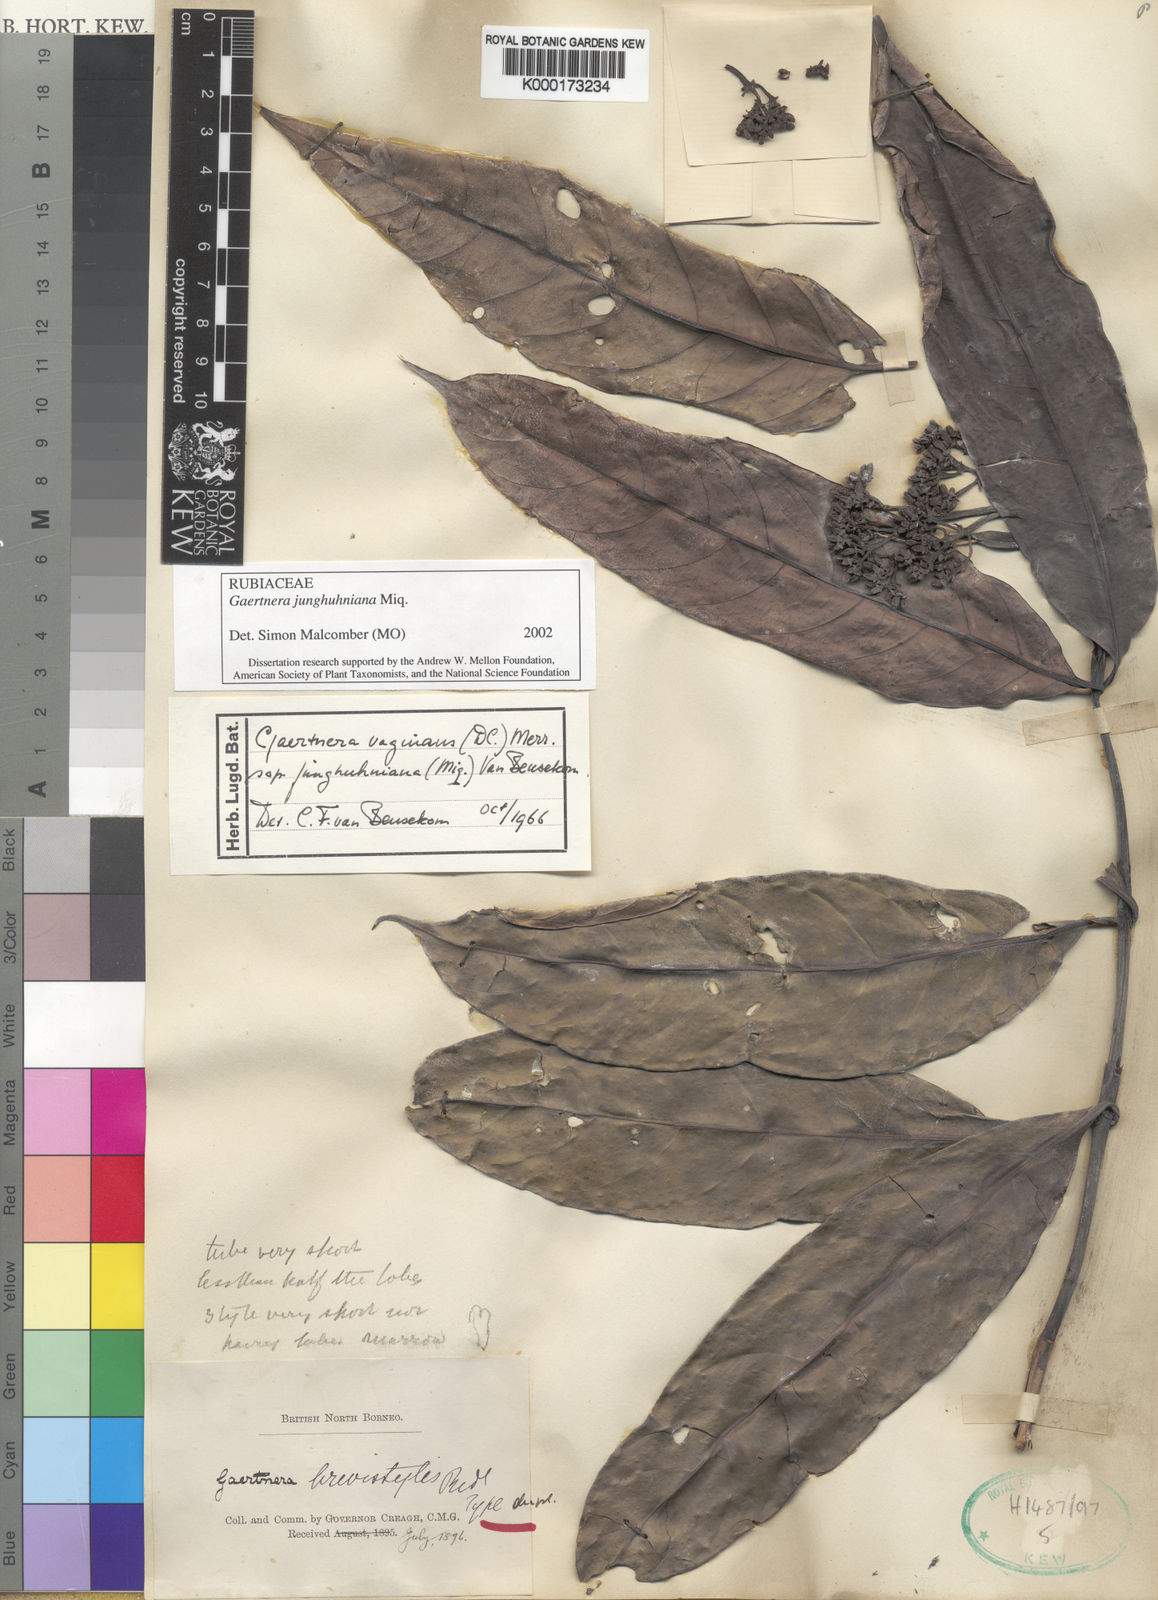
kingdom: Plantae
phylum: Tracheophyta
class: Magnoliopsida
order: Gentianales
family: Rubiaceae
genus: Gaertnera
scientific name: Gaertnera junghuhniana
